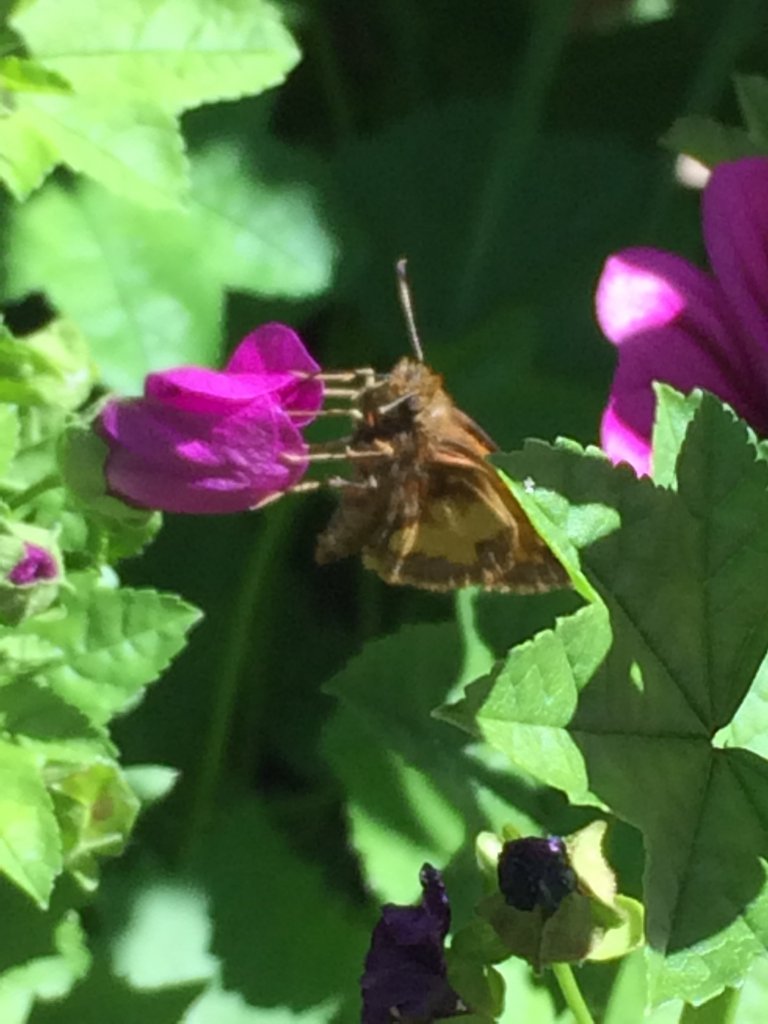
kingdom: Animalia
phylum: Arthropoda
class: Insecta
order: Lepidoptera
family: Hesperiidae
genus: Lon
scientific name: Lon hobomok
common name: Hobomok Skipper
